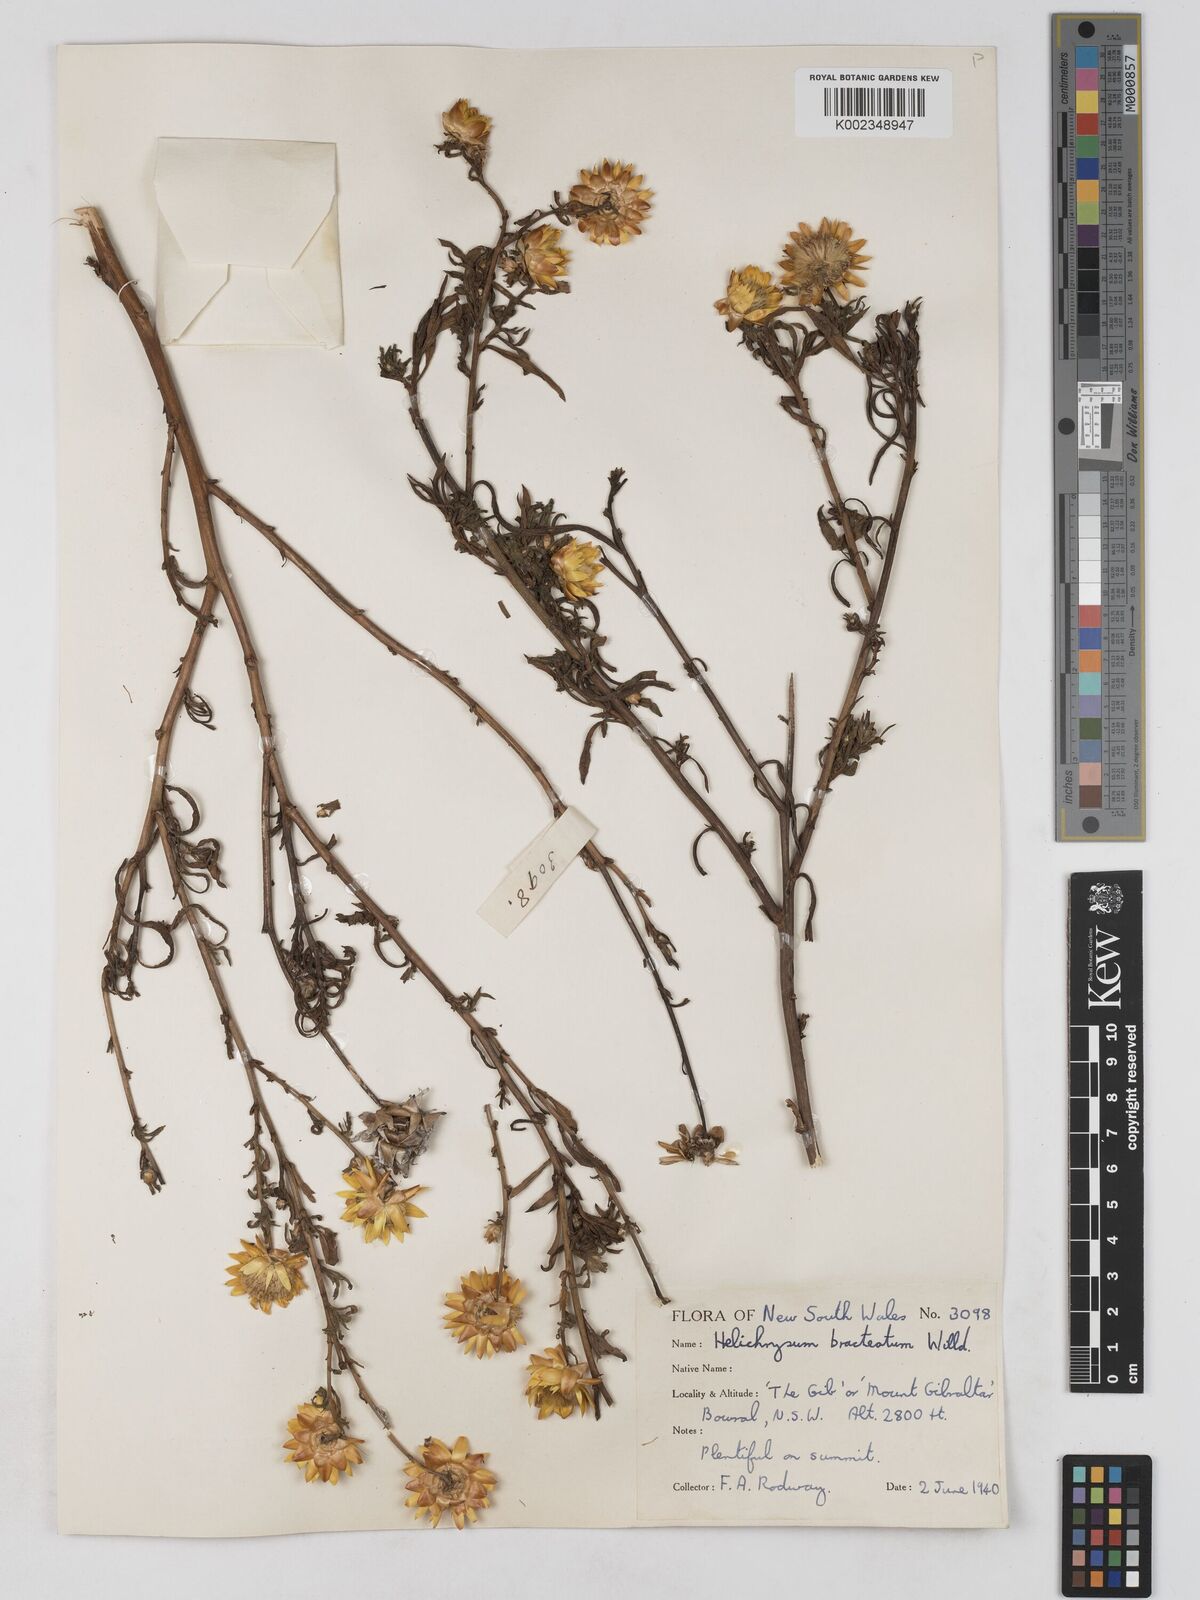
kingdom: Plantae
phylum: Tracheophyta
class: Magnoliopsida
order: Asterales
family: Asteraceae
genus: Xerochrysum
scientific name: Xerochrysum bracteatum
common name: Bracted strawflower
